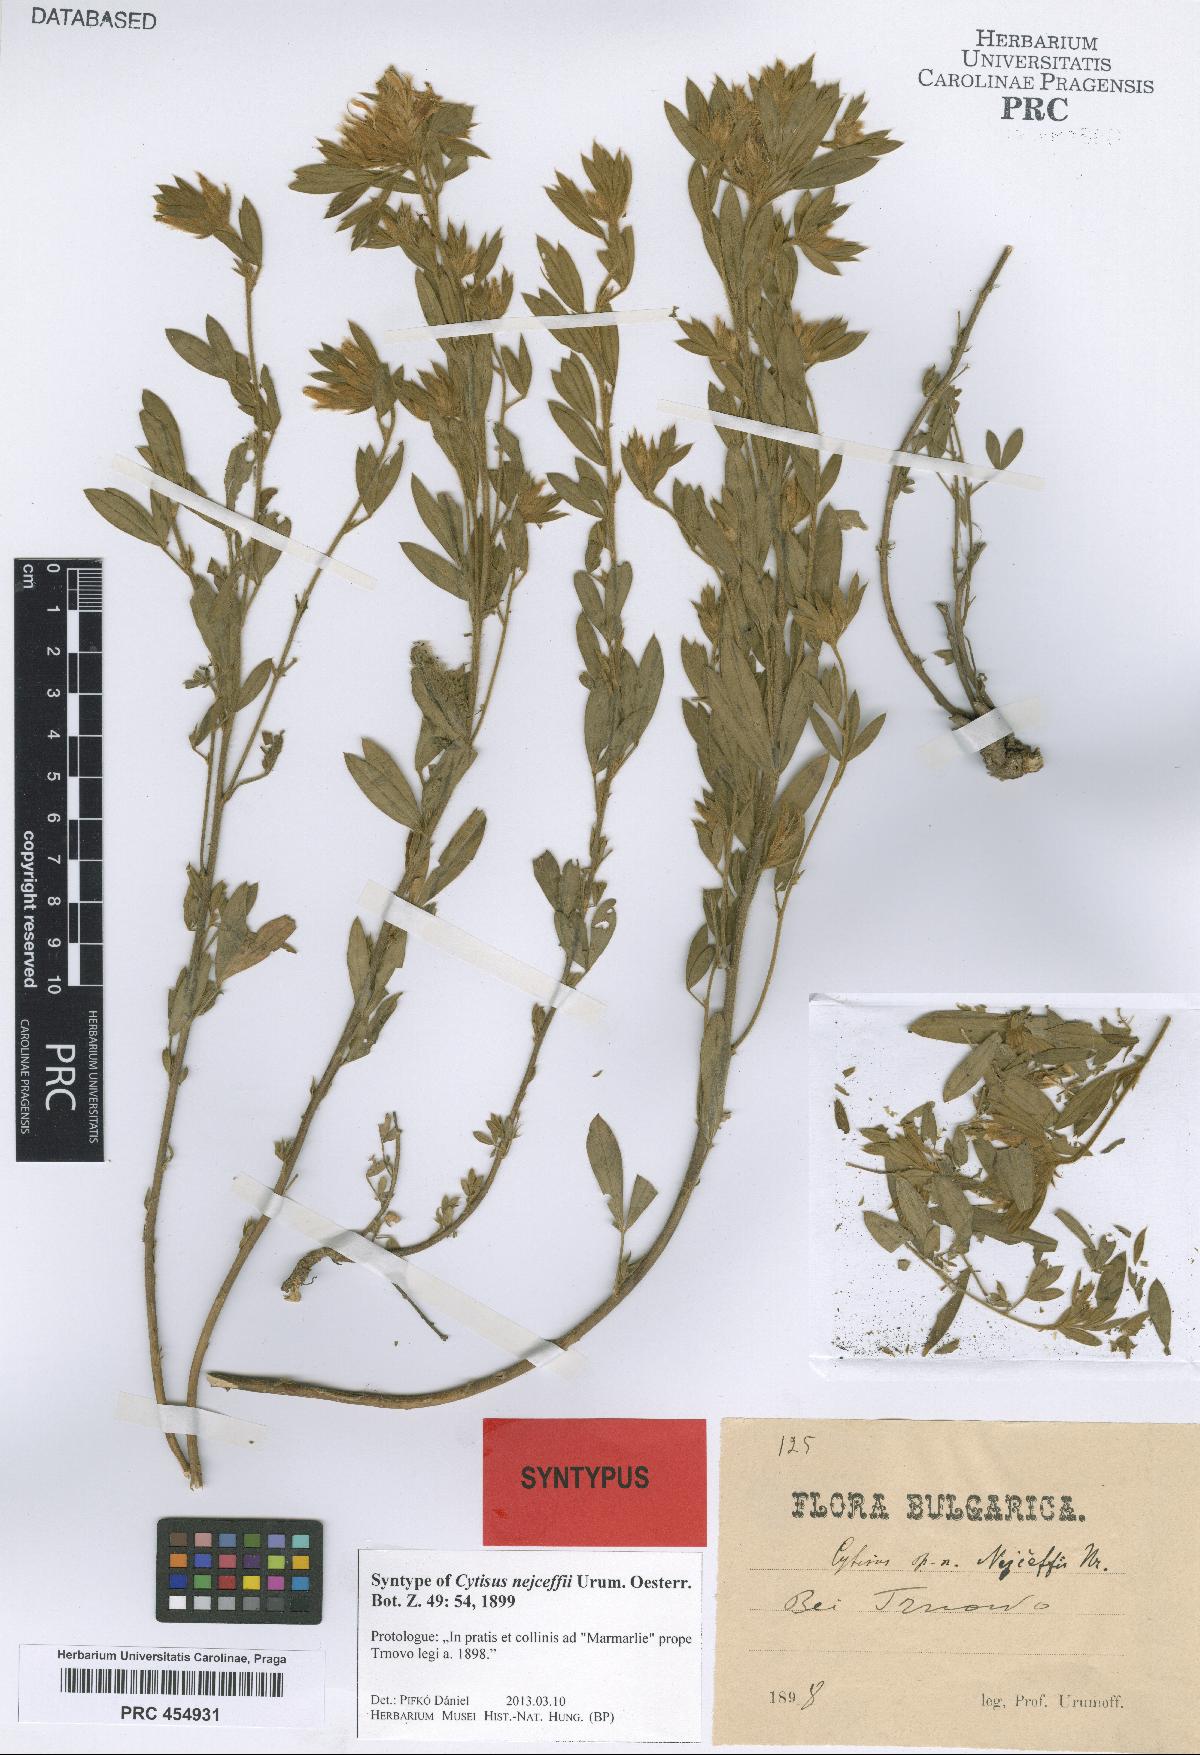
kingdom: Plantae
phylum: Tracheophyta
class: Magnoliopsida
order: Fabales
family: Fabaceae
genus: Chamaecytisus
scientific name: Chamaecytisus nejceffii
